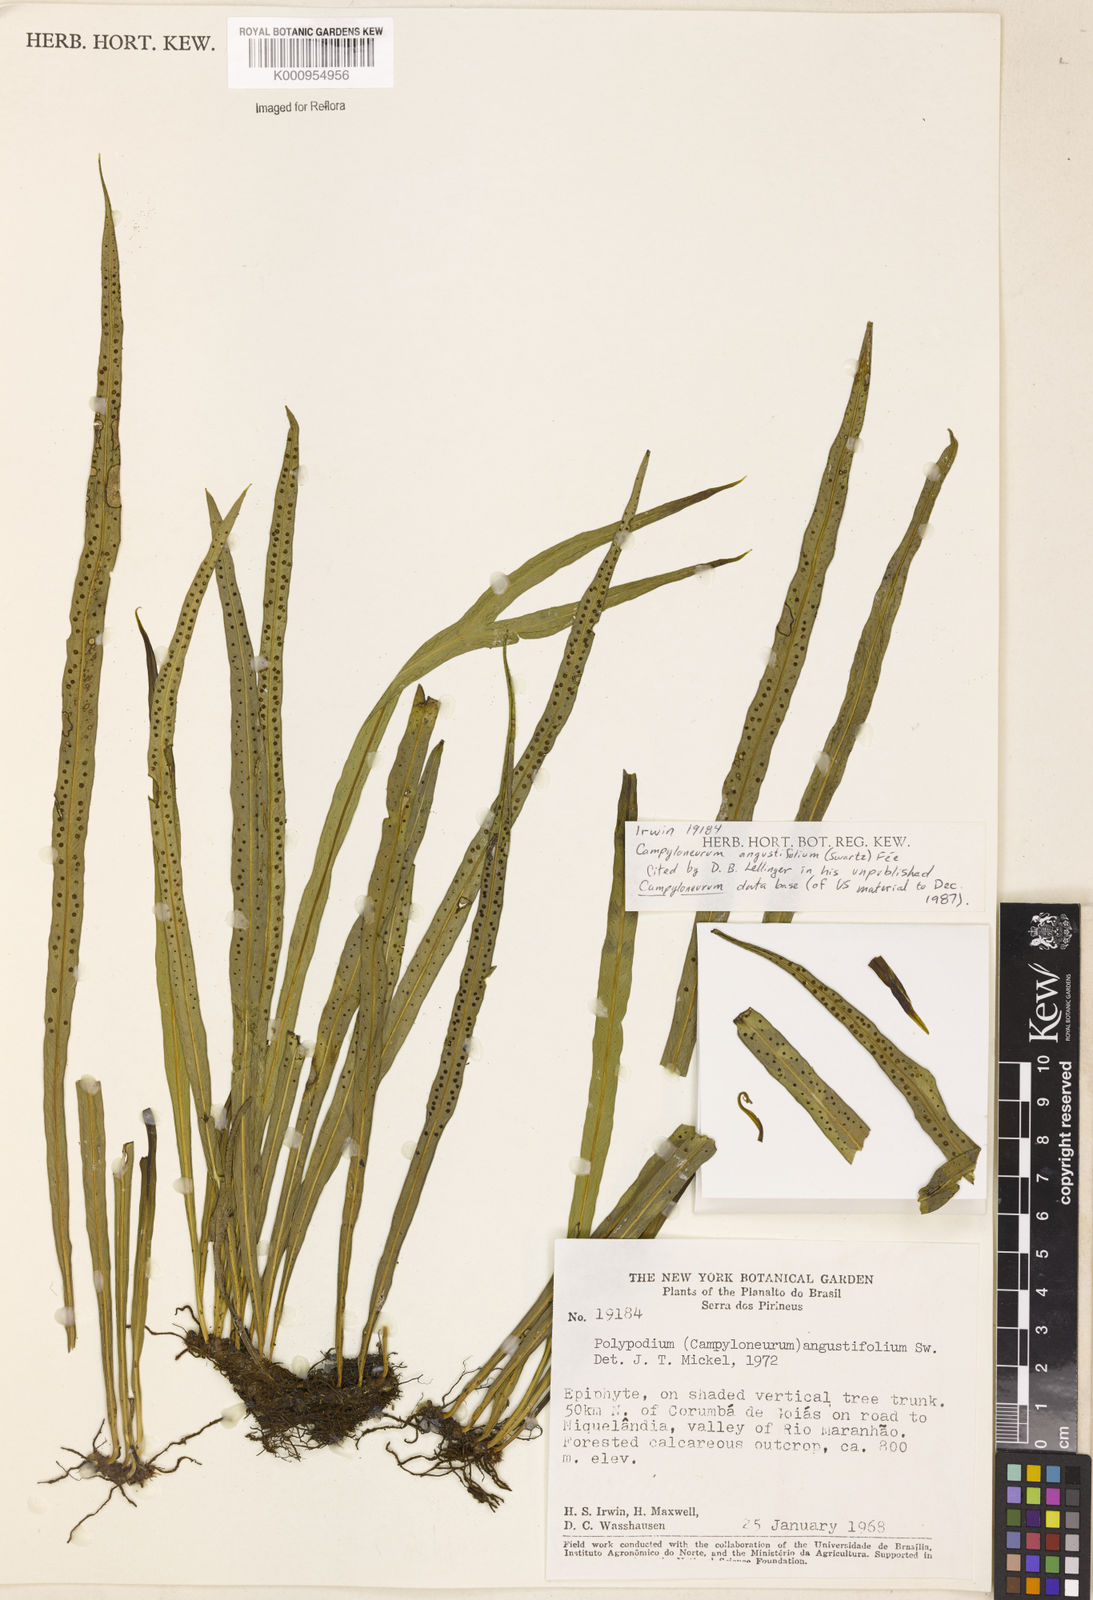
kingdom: Plantae
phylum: Tracheophyta
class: Polypodiopsida
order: Polypodiales
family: Polypodiaceae
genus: Campyloneurum
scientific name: Campyloneurum
